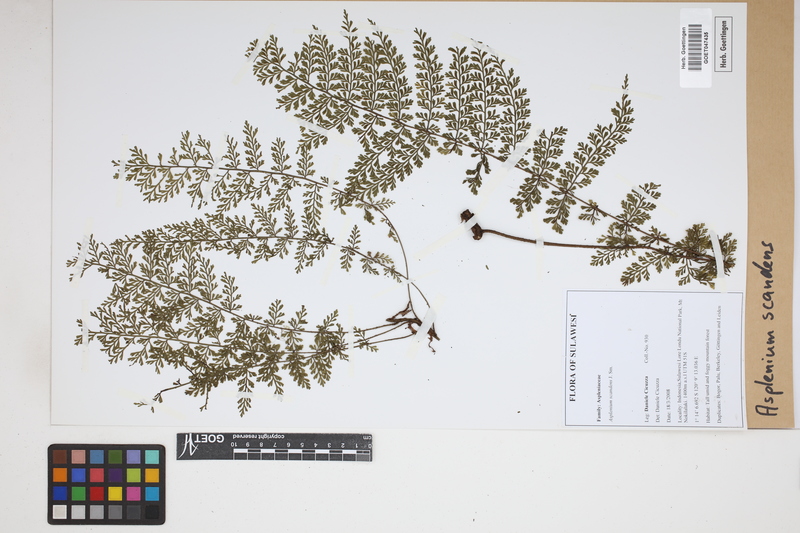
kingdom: Plantae
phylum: Tracheophyta
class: Polypodiopsida
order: Polypodiales
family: Aspleniaceae
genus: Asplenium
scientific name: Asplenium scandens
